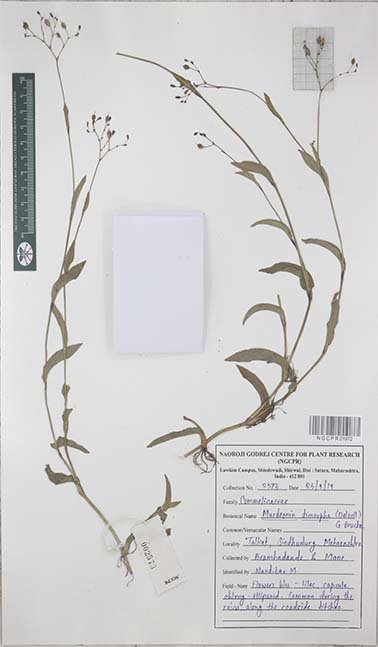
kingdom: Plantae
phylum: Tracheophyta
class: Liliopsida
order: Commelinales
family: Commelinaceae
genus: Murdannia
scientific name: Murdannia dimorpha
